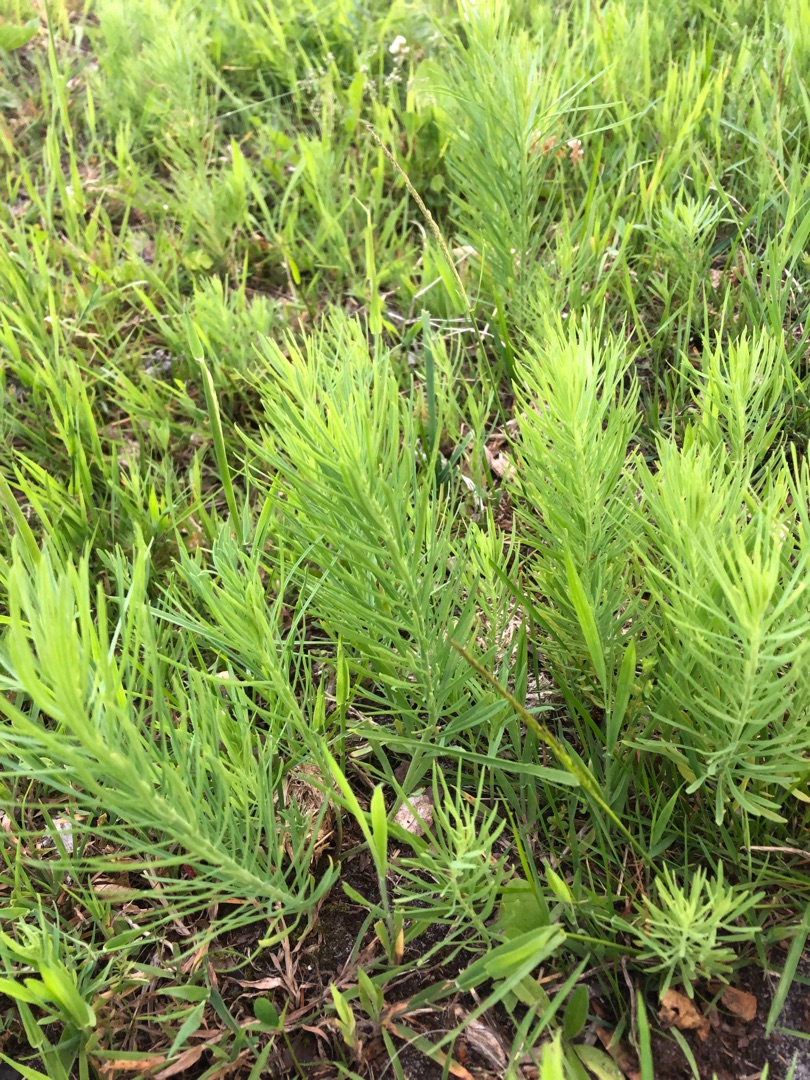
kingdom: Plantae
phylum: Tracheophyta
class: Magnoliopsida
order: Lamiales
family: Plantaginaceae
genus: Linaria
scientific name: Linaria vulgaris
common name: Almindelig torskemund
